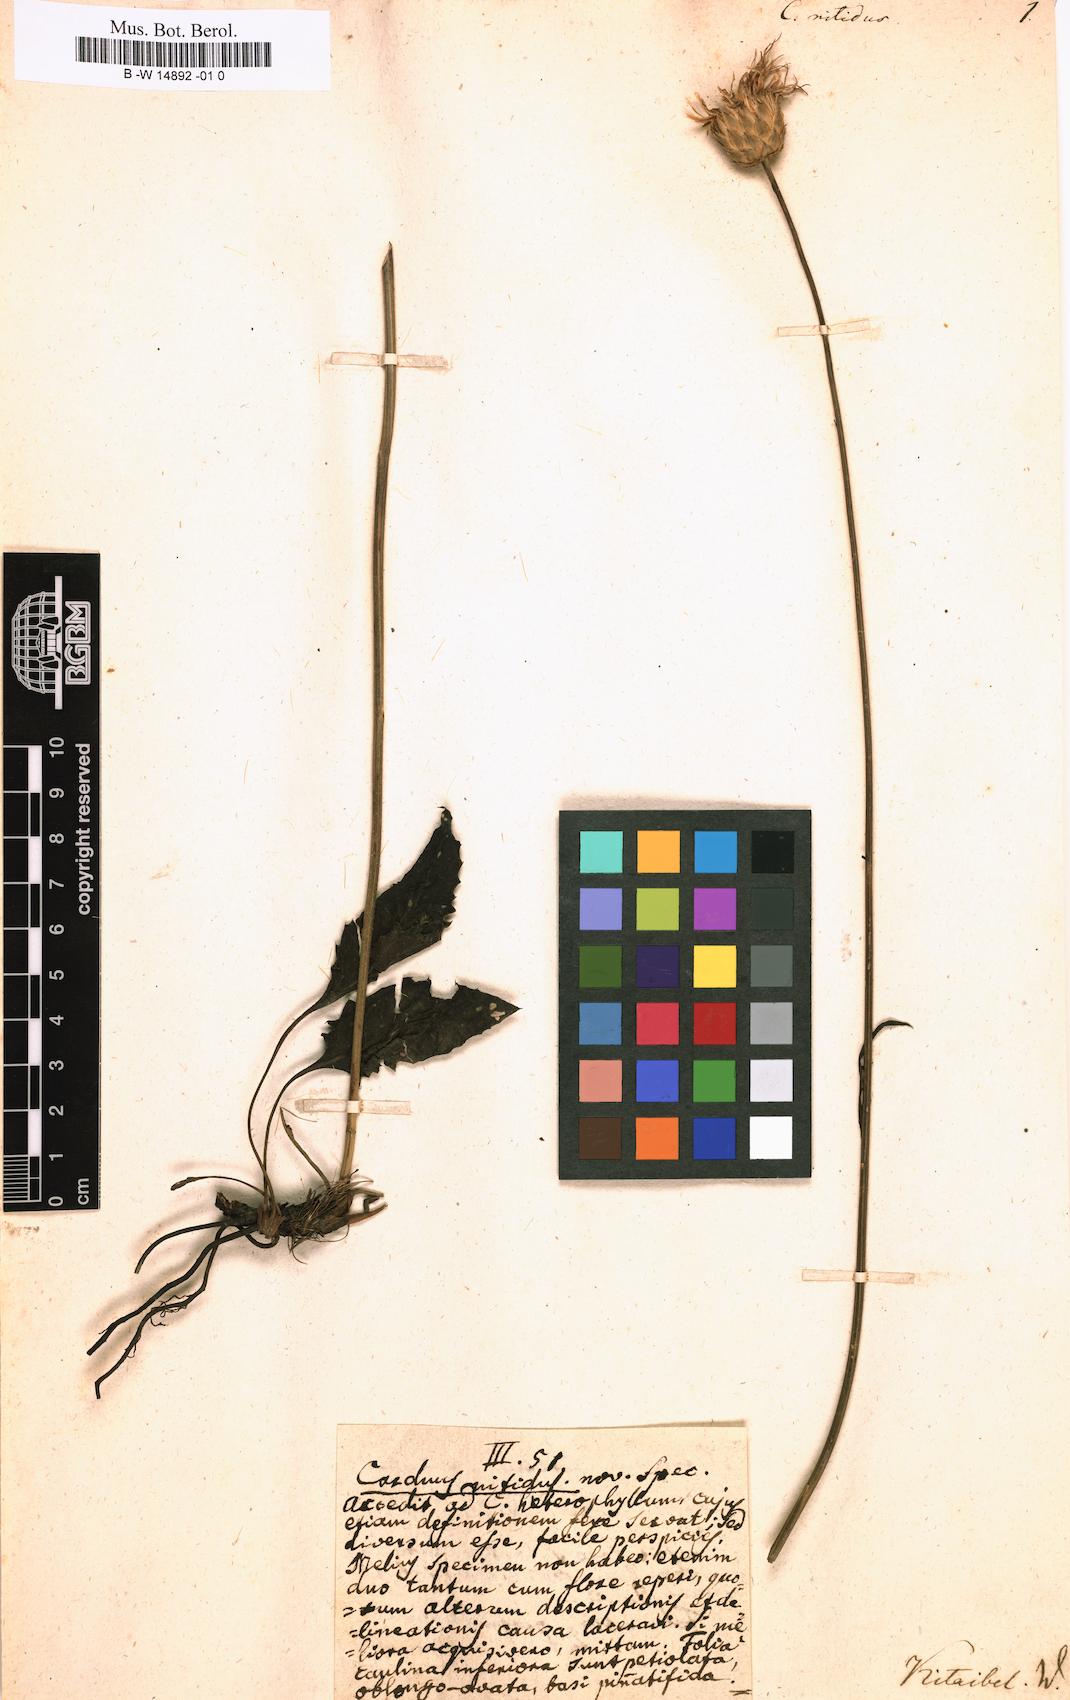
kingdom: Plantae
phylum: Tracheophyta
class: Magnoliopsida
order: Asterales
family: Asteraceae
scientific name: Asteraceae
